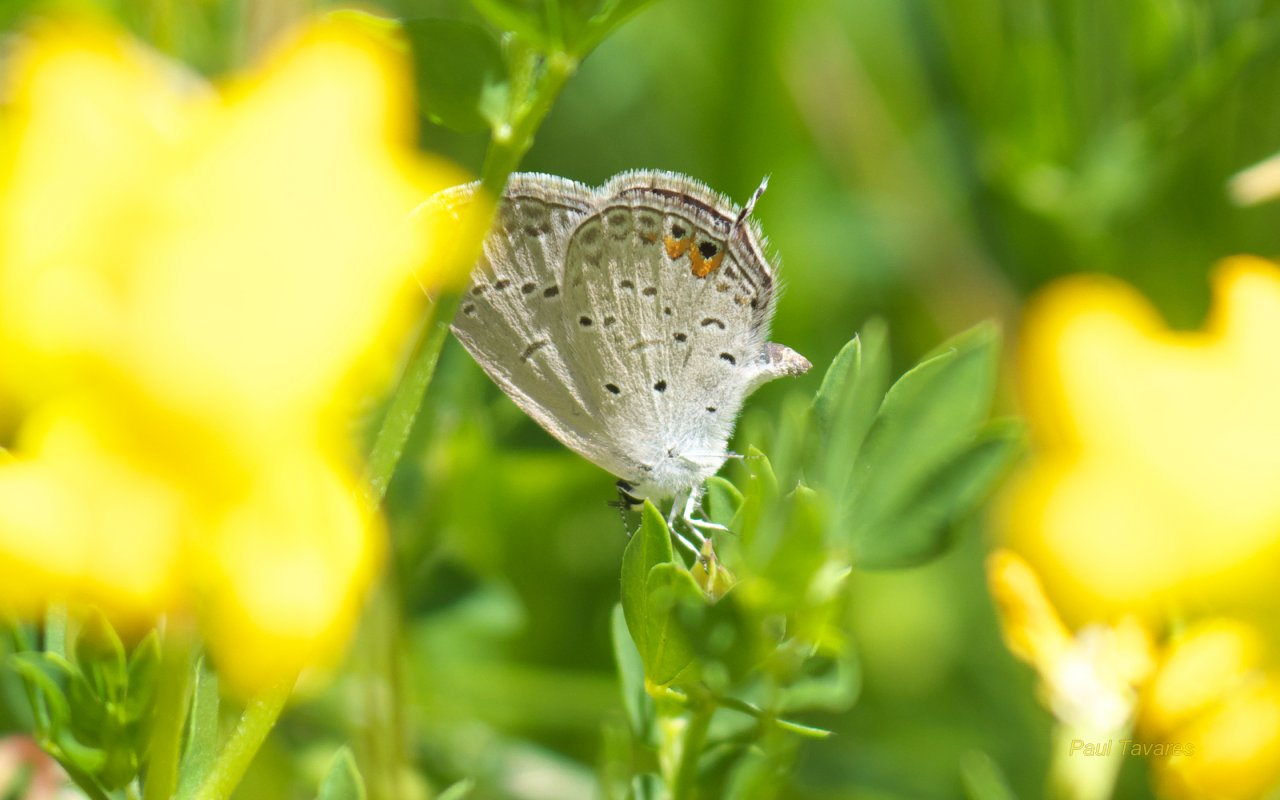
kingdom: Animalia
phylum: Arthropoda
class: Insecta
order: Lepidoptera
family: Lycaenidae
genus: Elkalyce
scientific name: Elkalyce comyntas
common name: Eastern Tailed-Blue
